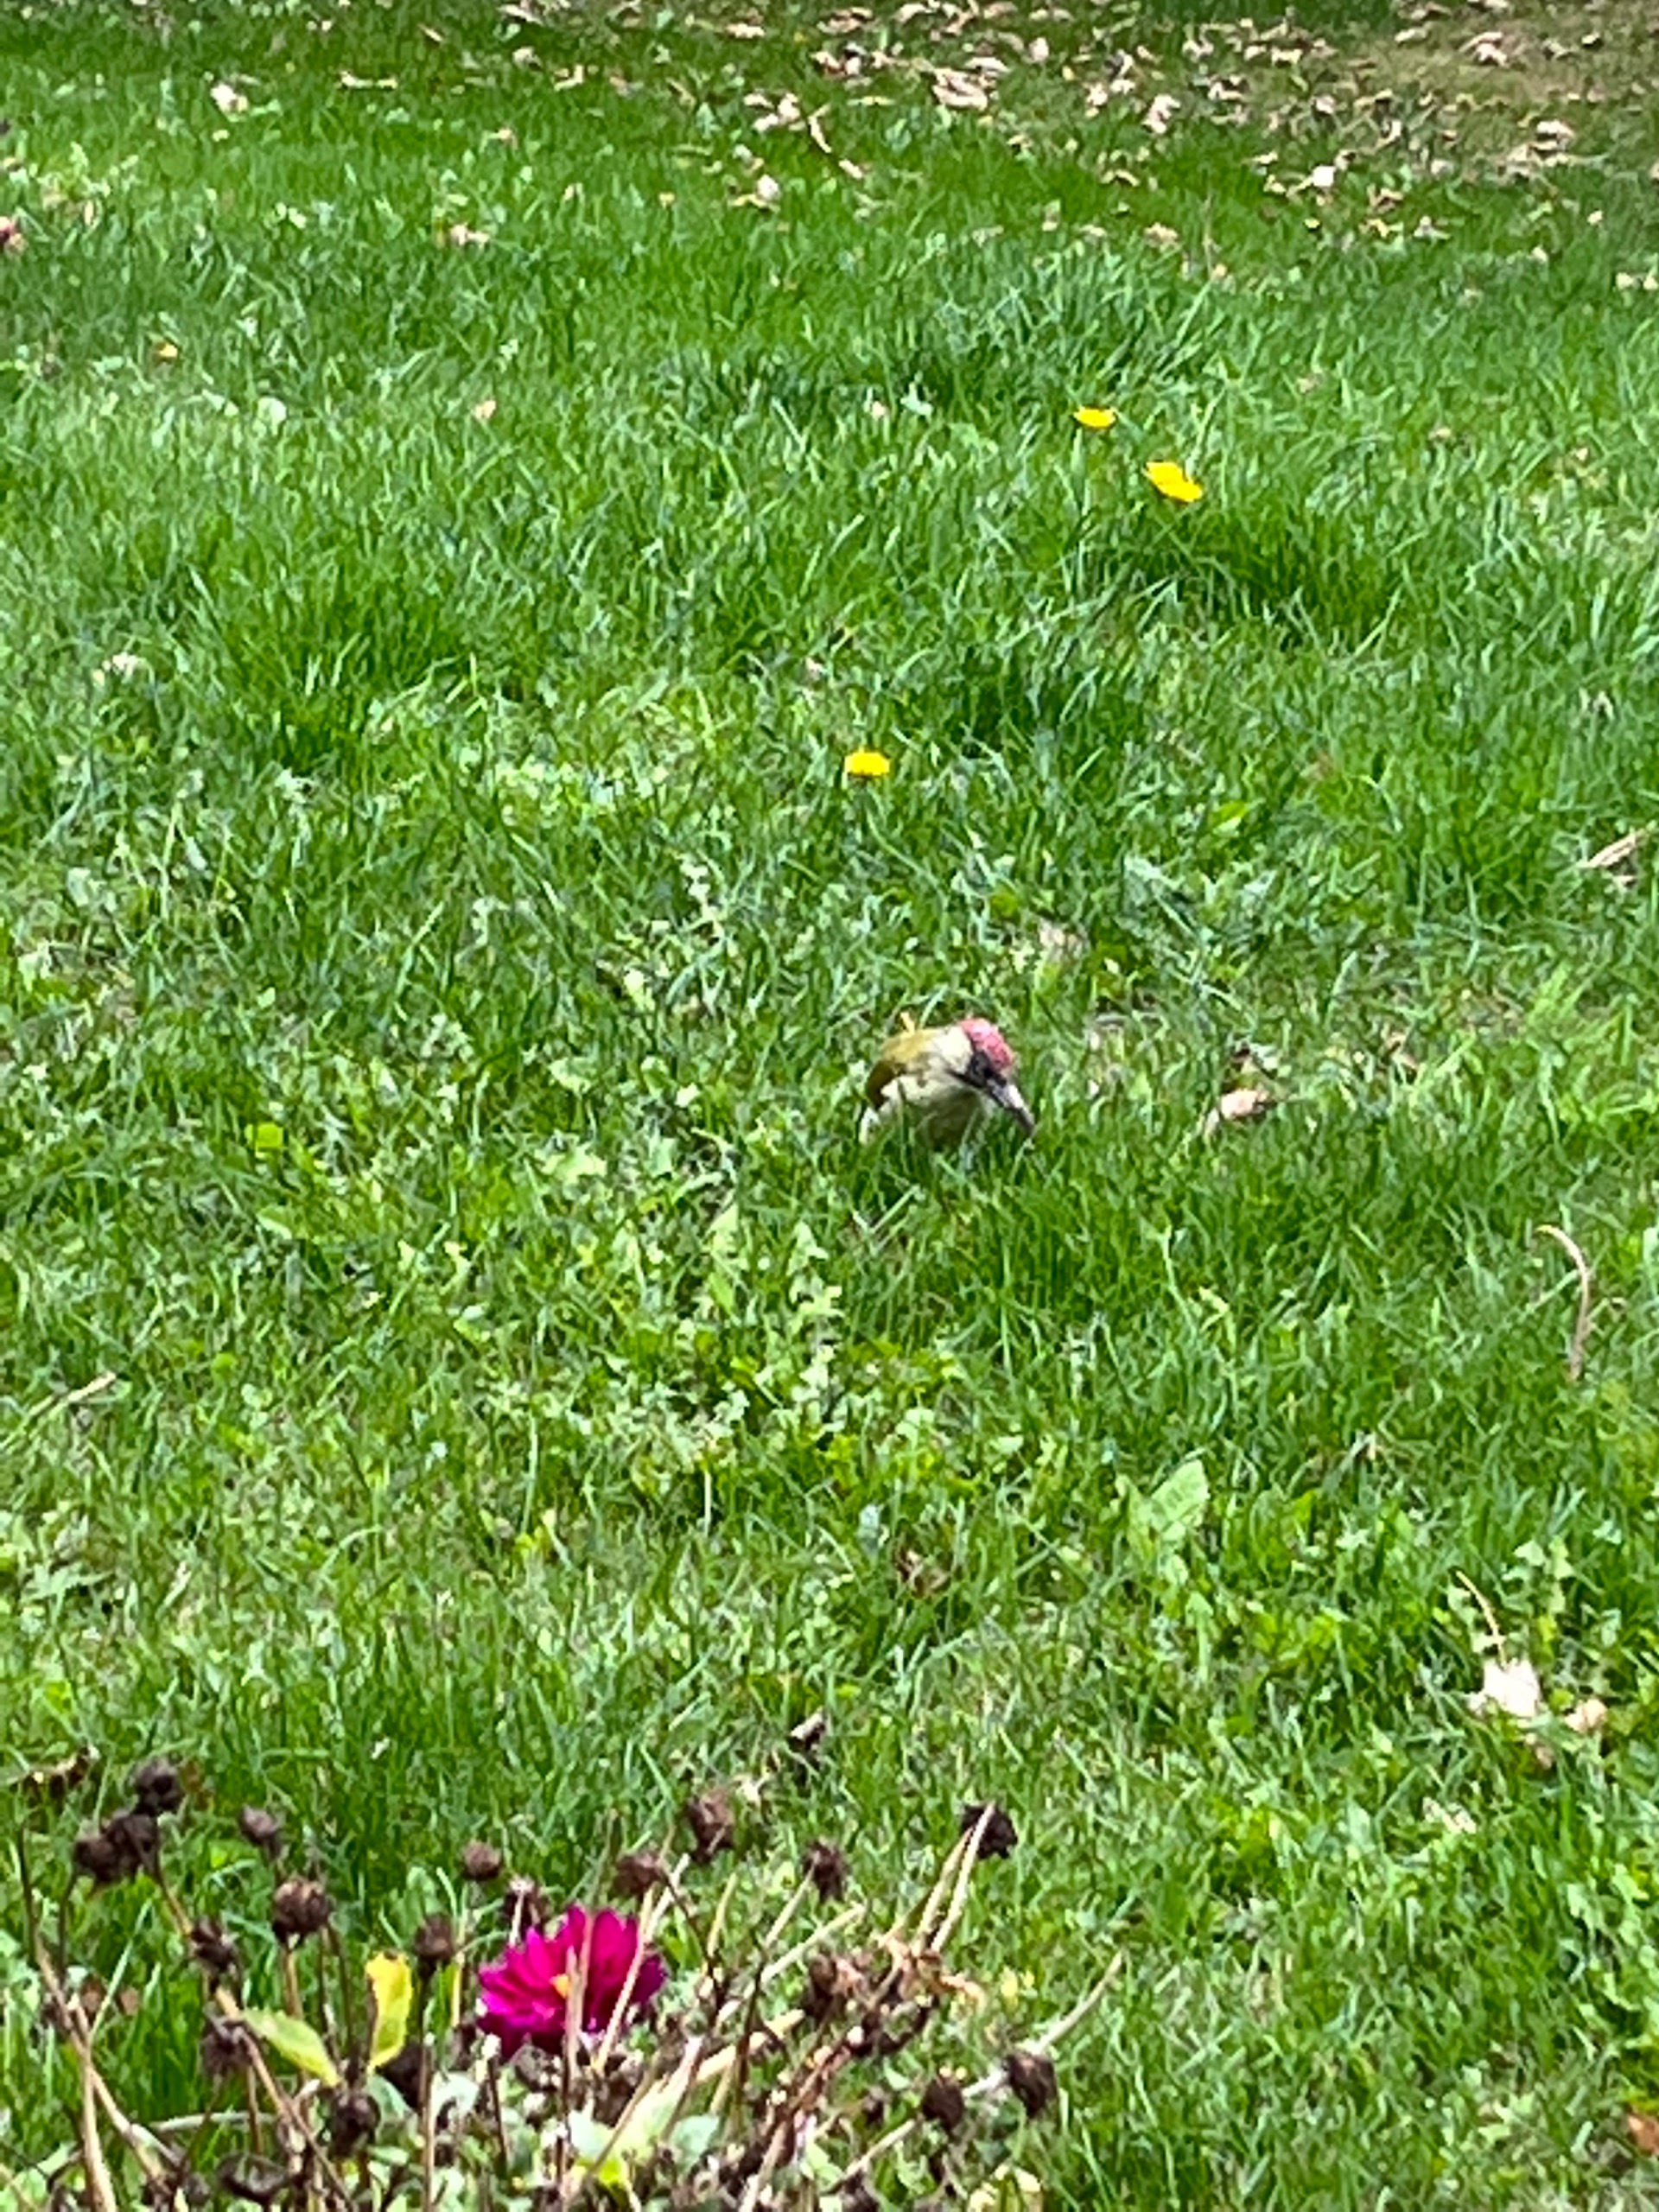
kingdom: Animalia
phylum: Chordata
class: Aves
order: Piciformes
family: Picidae
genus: Picus
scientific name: Picus viridis
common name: Grønspætte
